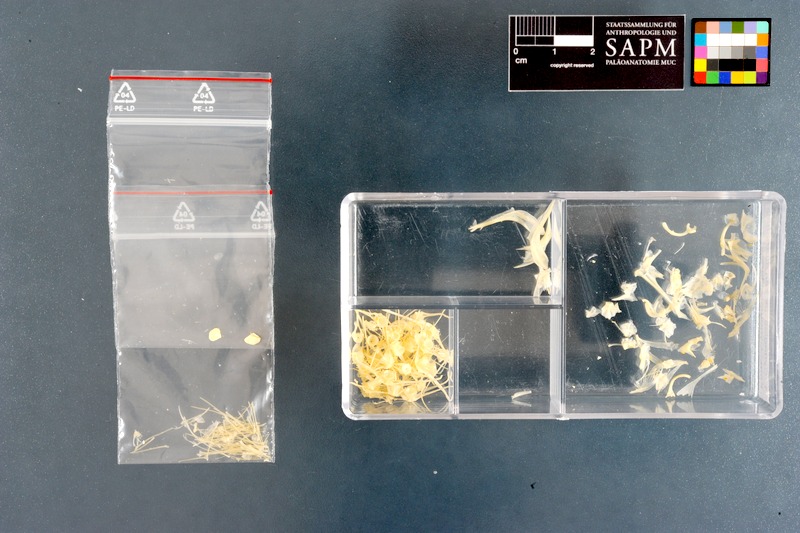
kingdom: Animalia
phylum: Chordata
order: Pleuronectiformes
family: Cynoglossidae
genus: Cynoglossus
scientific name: Cynoglossus zanzibarensis
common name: Redspotted tonguesole
